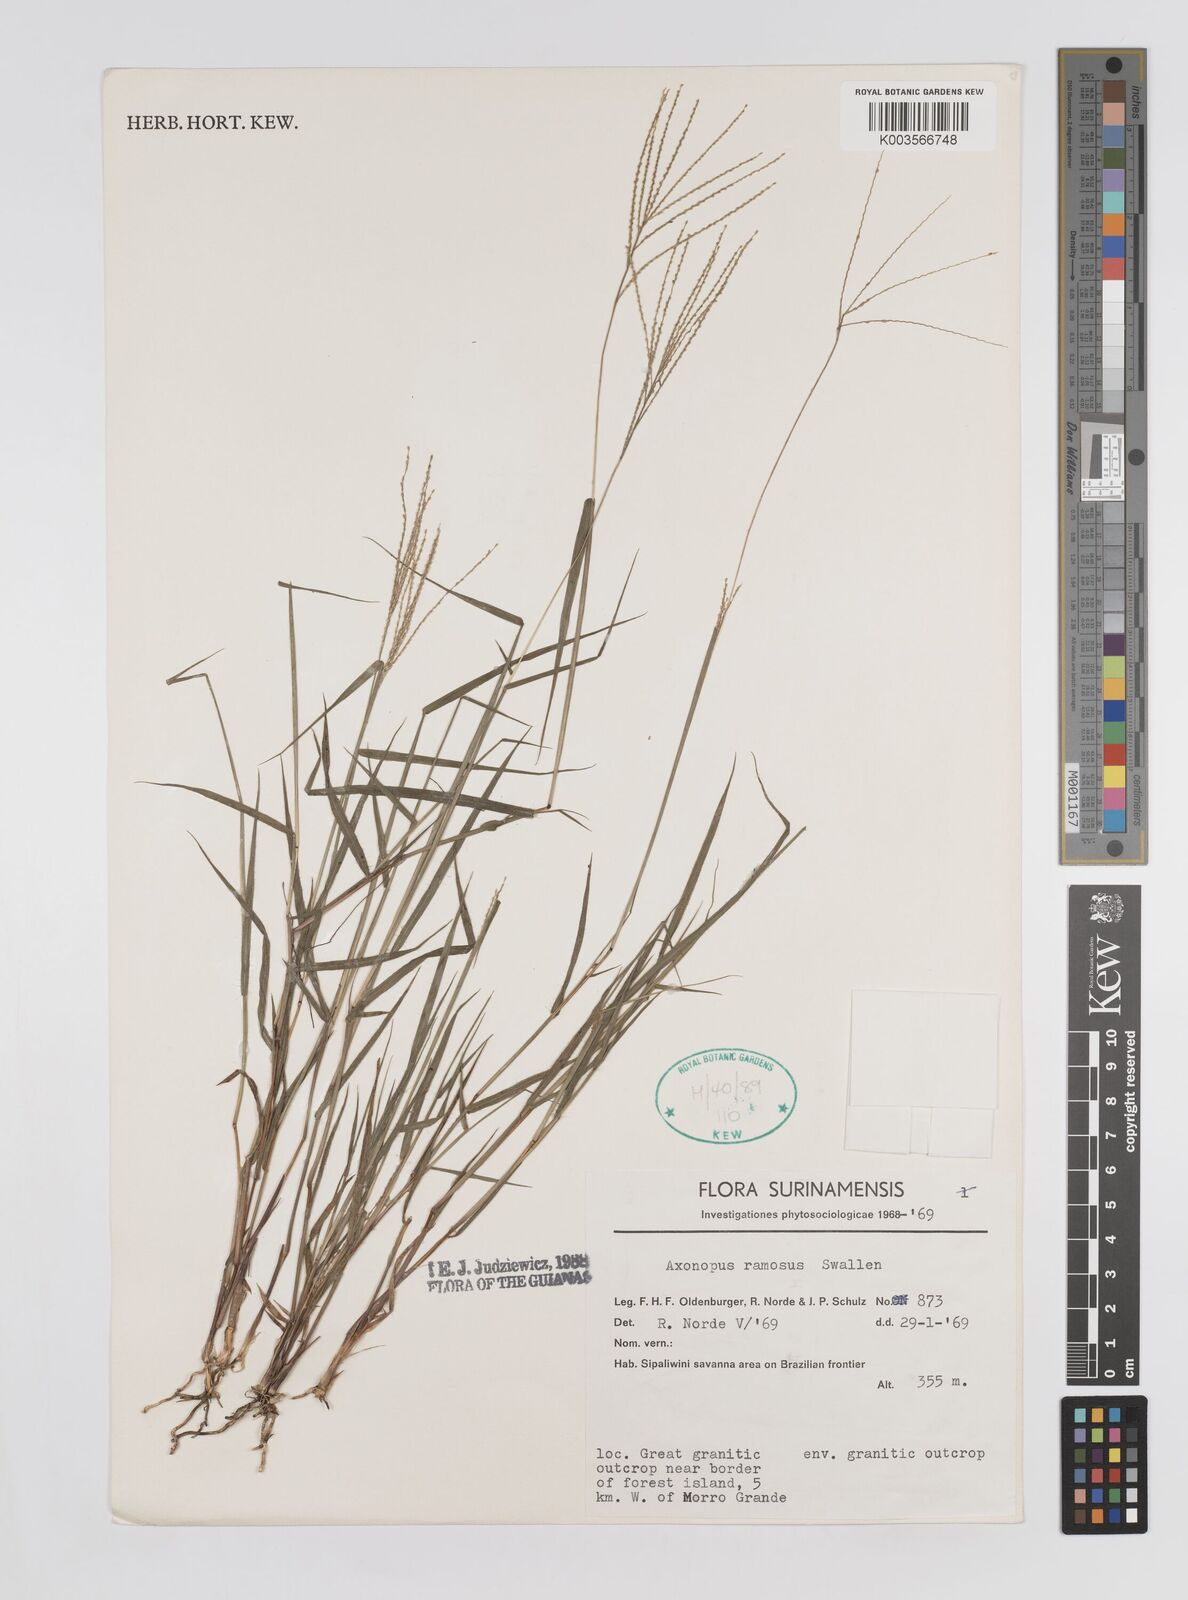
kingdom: Plantae
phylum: Tracheophyta
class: Liliopsida
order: Poales
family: Poaceae
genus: Axonopus
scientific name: Axonopus ramosus
